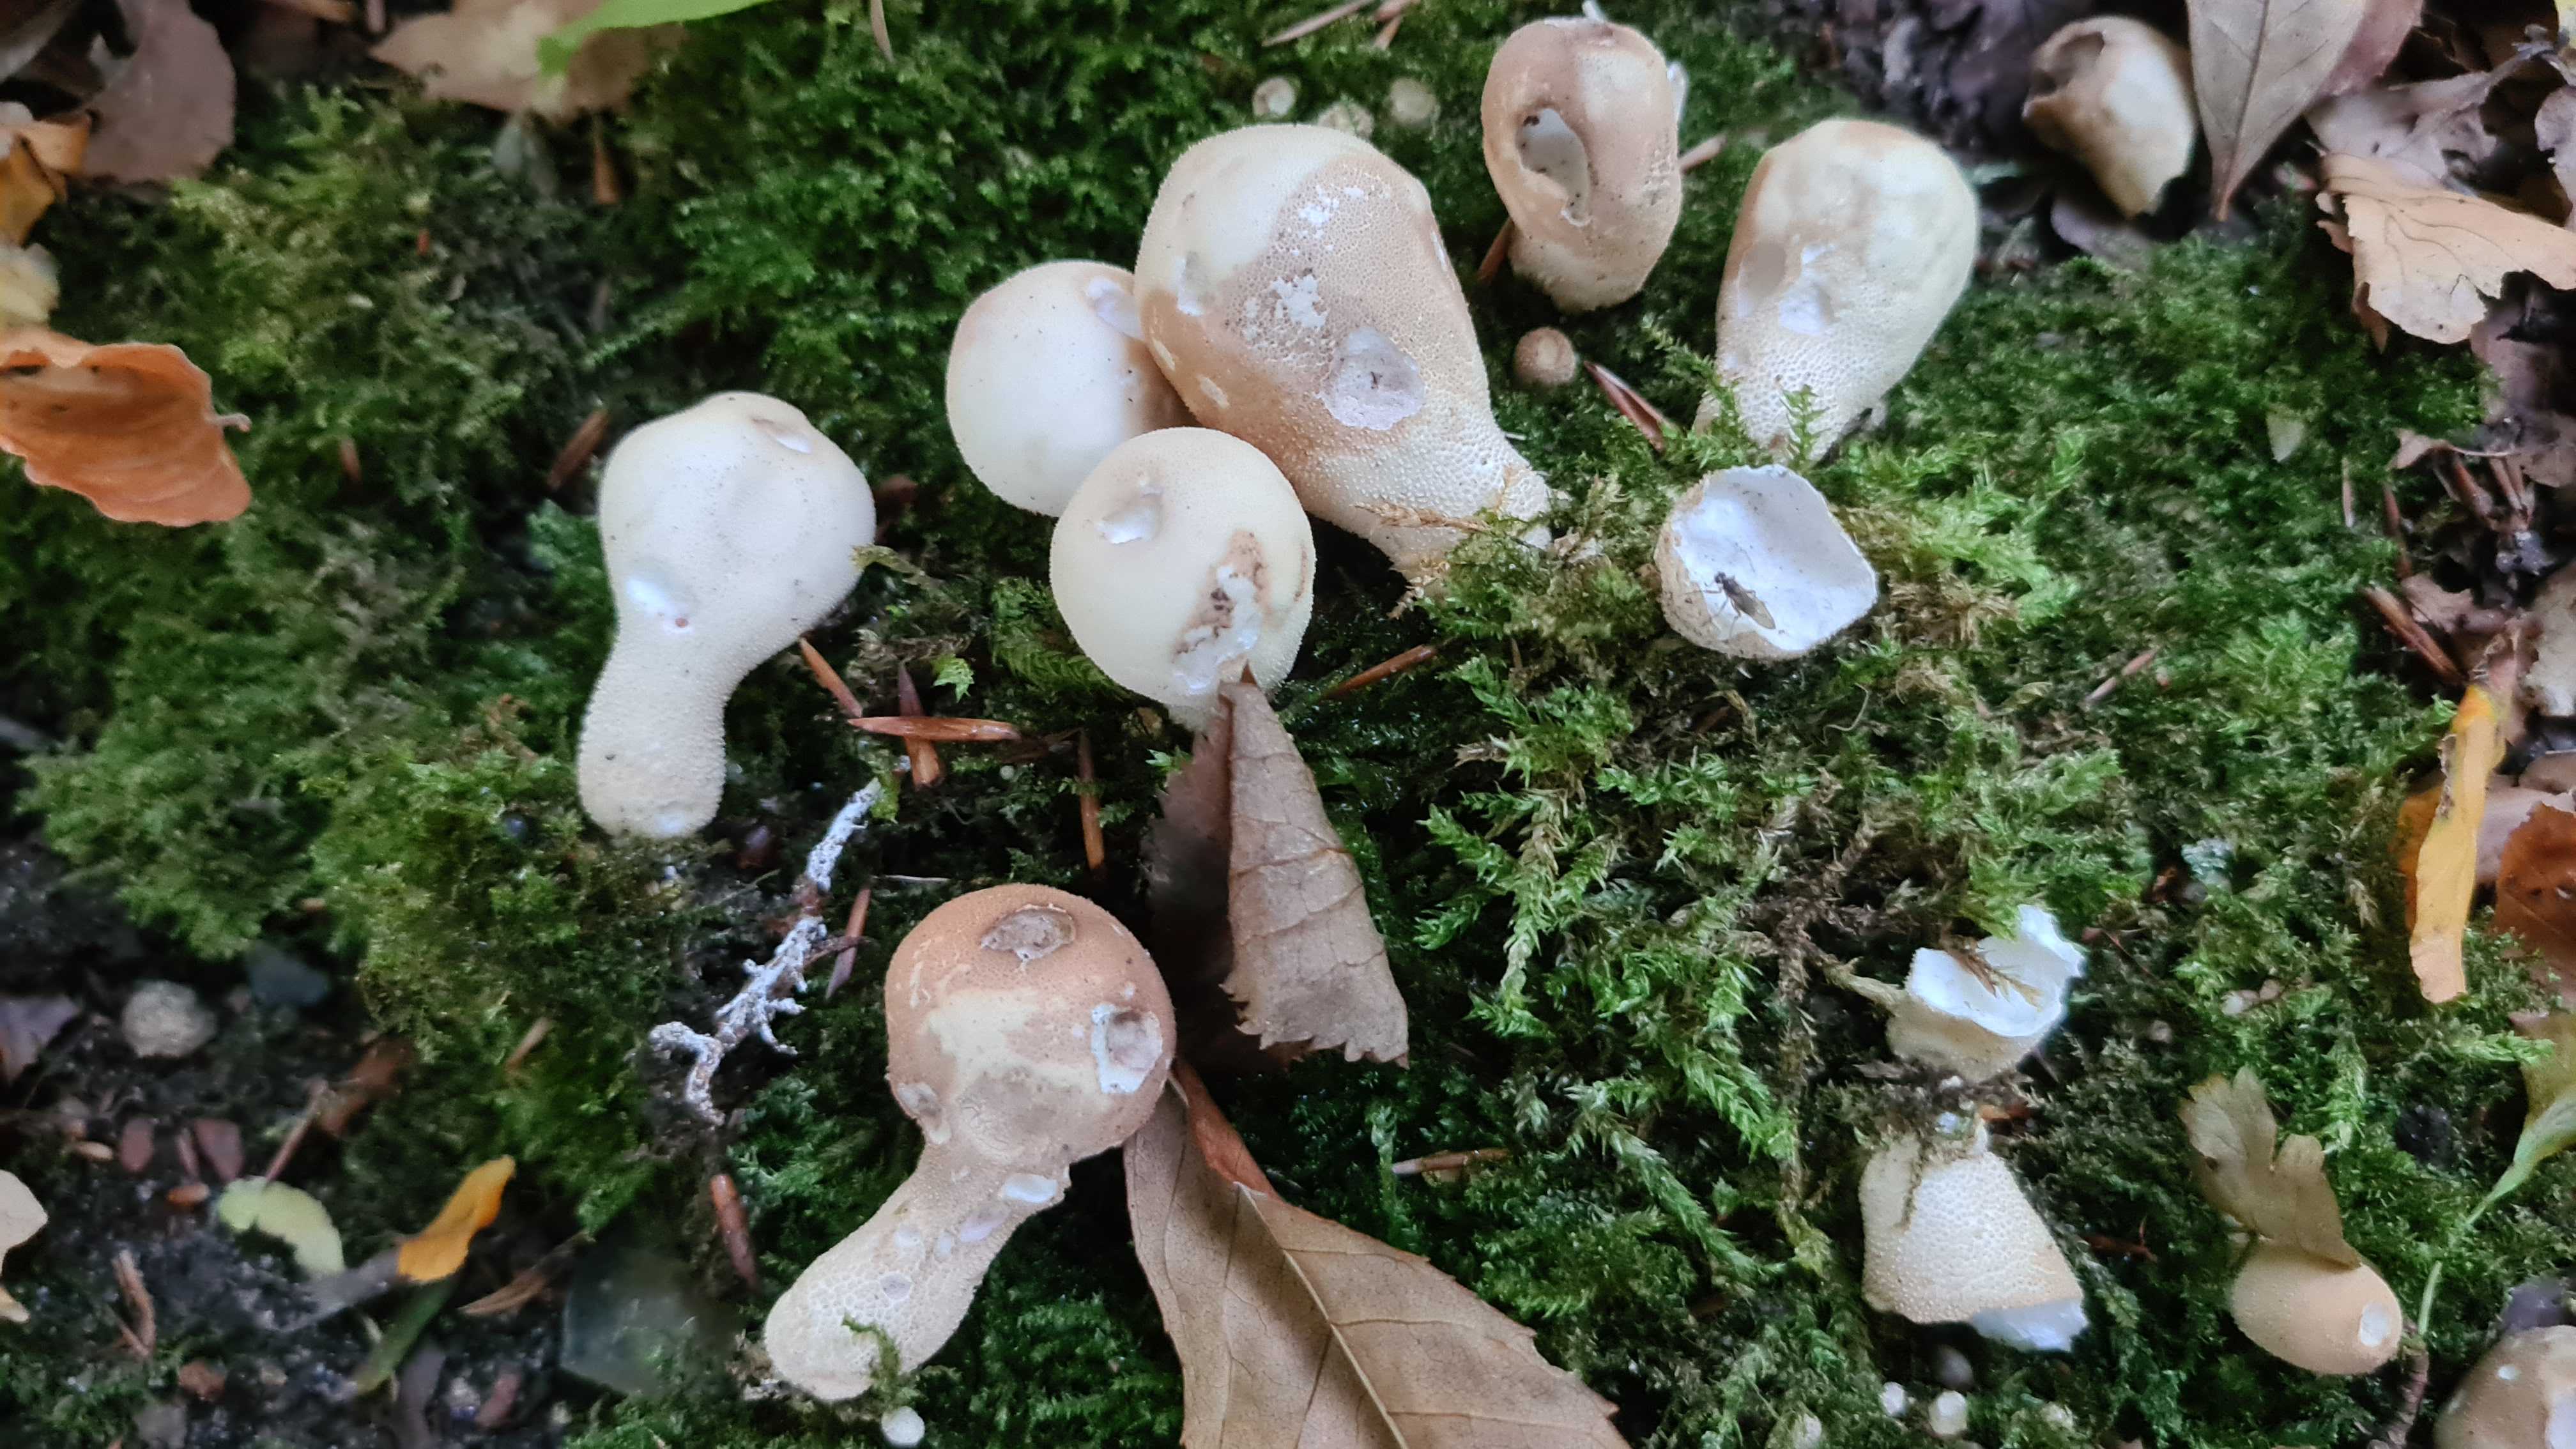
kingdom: Fungi
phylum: Basidiomycota
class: Agaricomycetes
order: Agaricales
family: Lycoperdaceae
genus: Apioperdon
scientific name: Apioperdon pyriforme
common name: pære-støvbold
